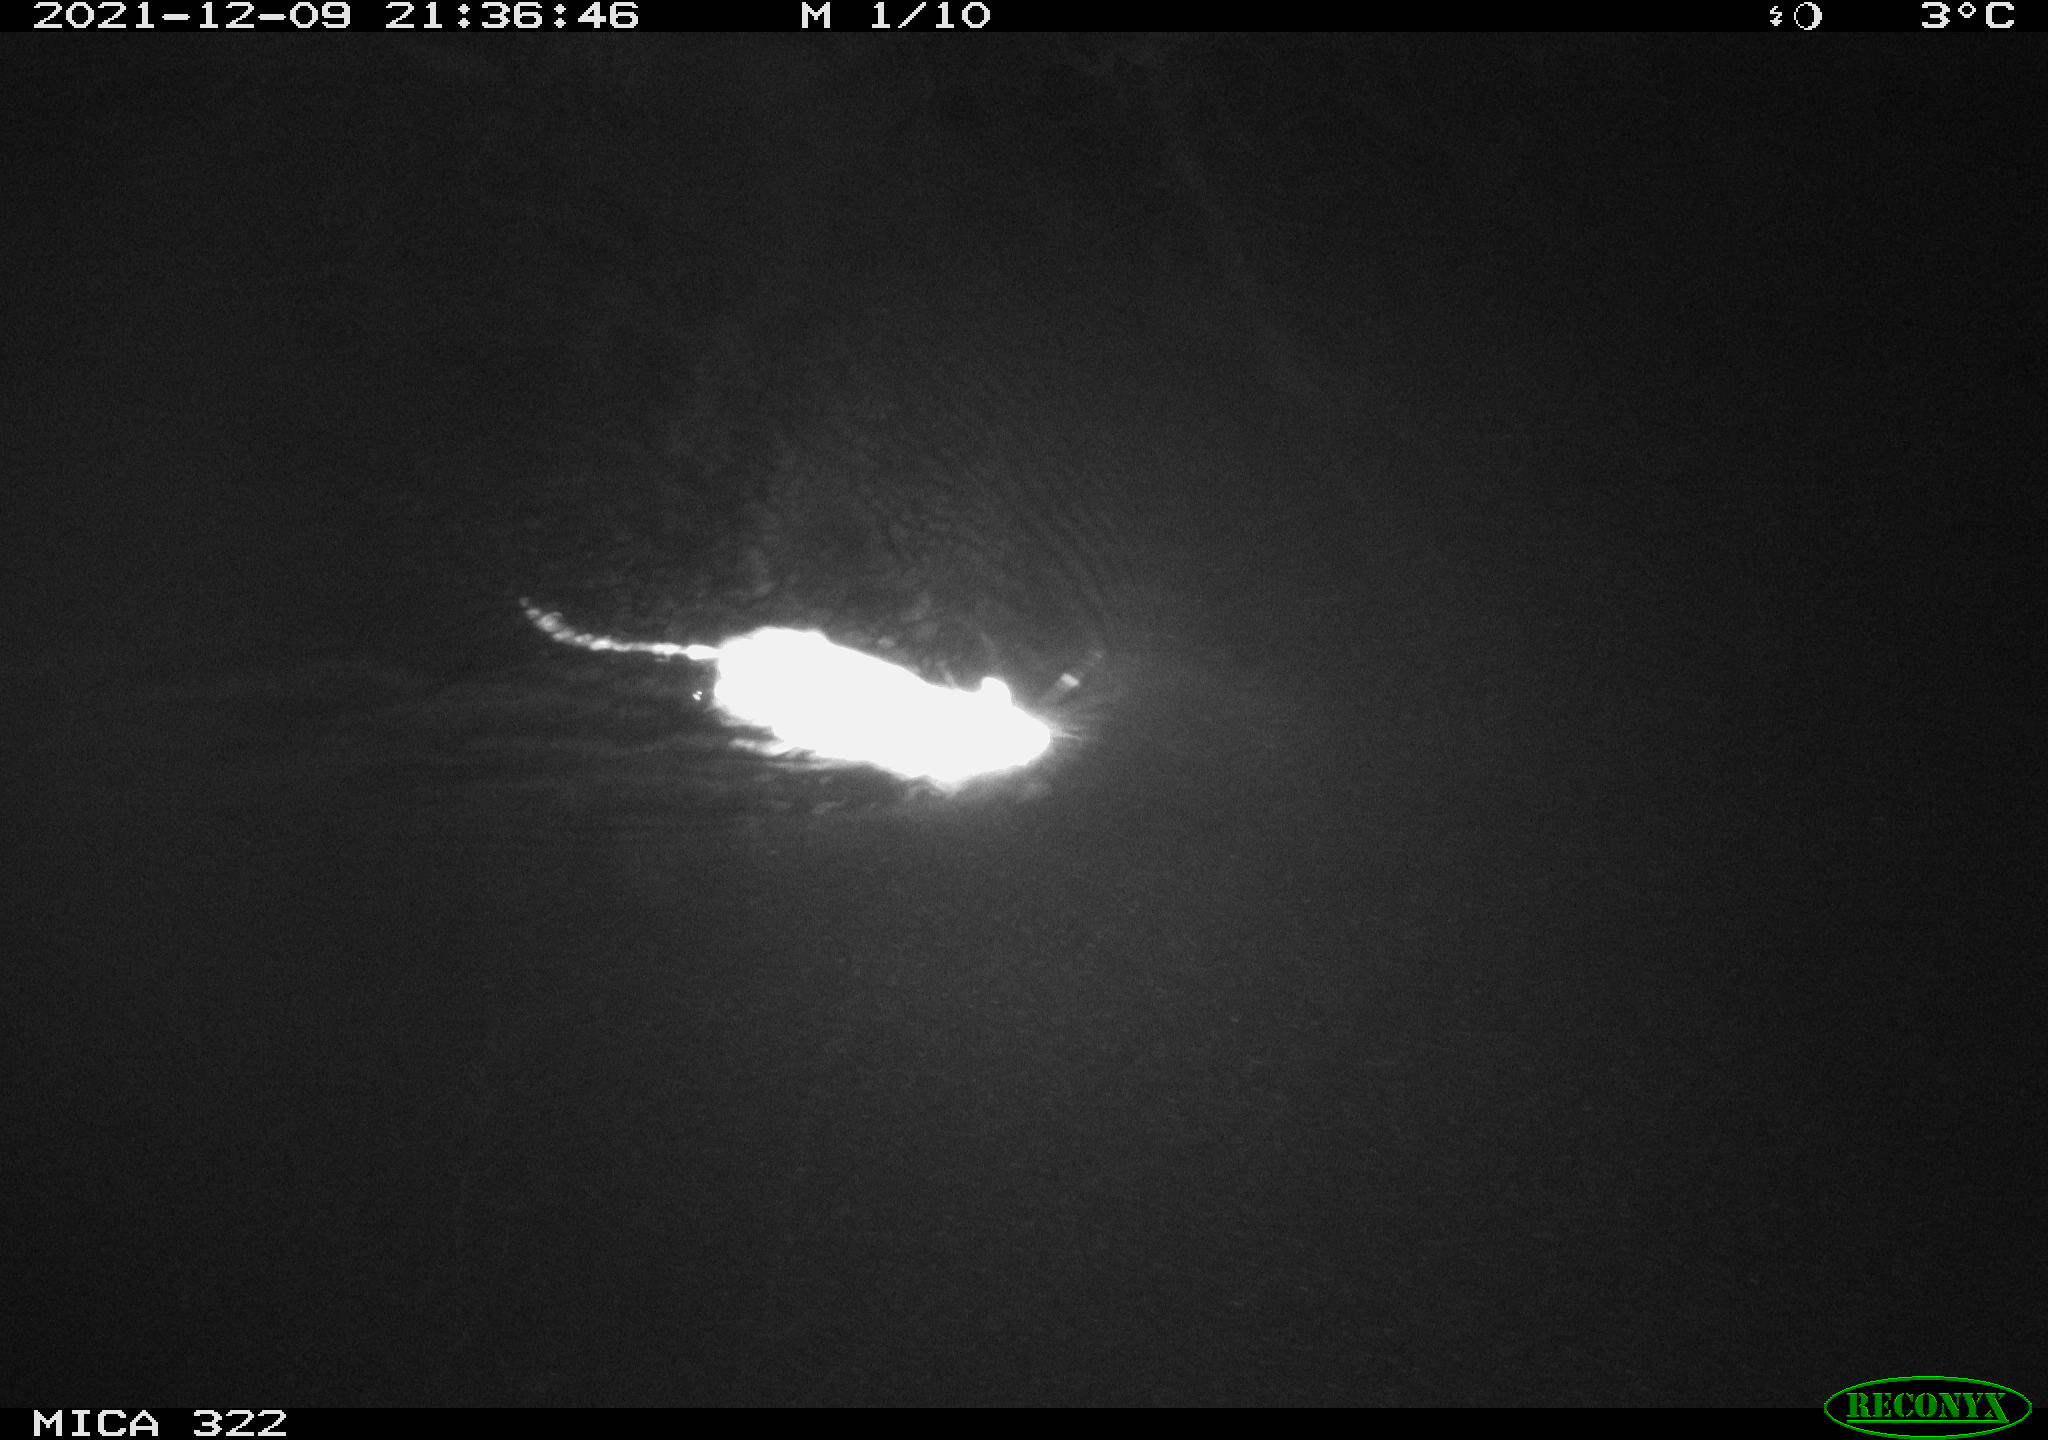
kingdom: Animalia
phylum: Chordata
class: Mammalia
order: Rodentia
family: Muridae
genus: Rattus
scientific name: Rattus norvegicus
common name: Brown rat
